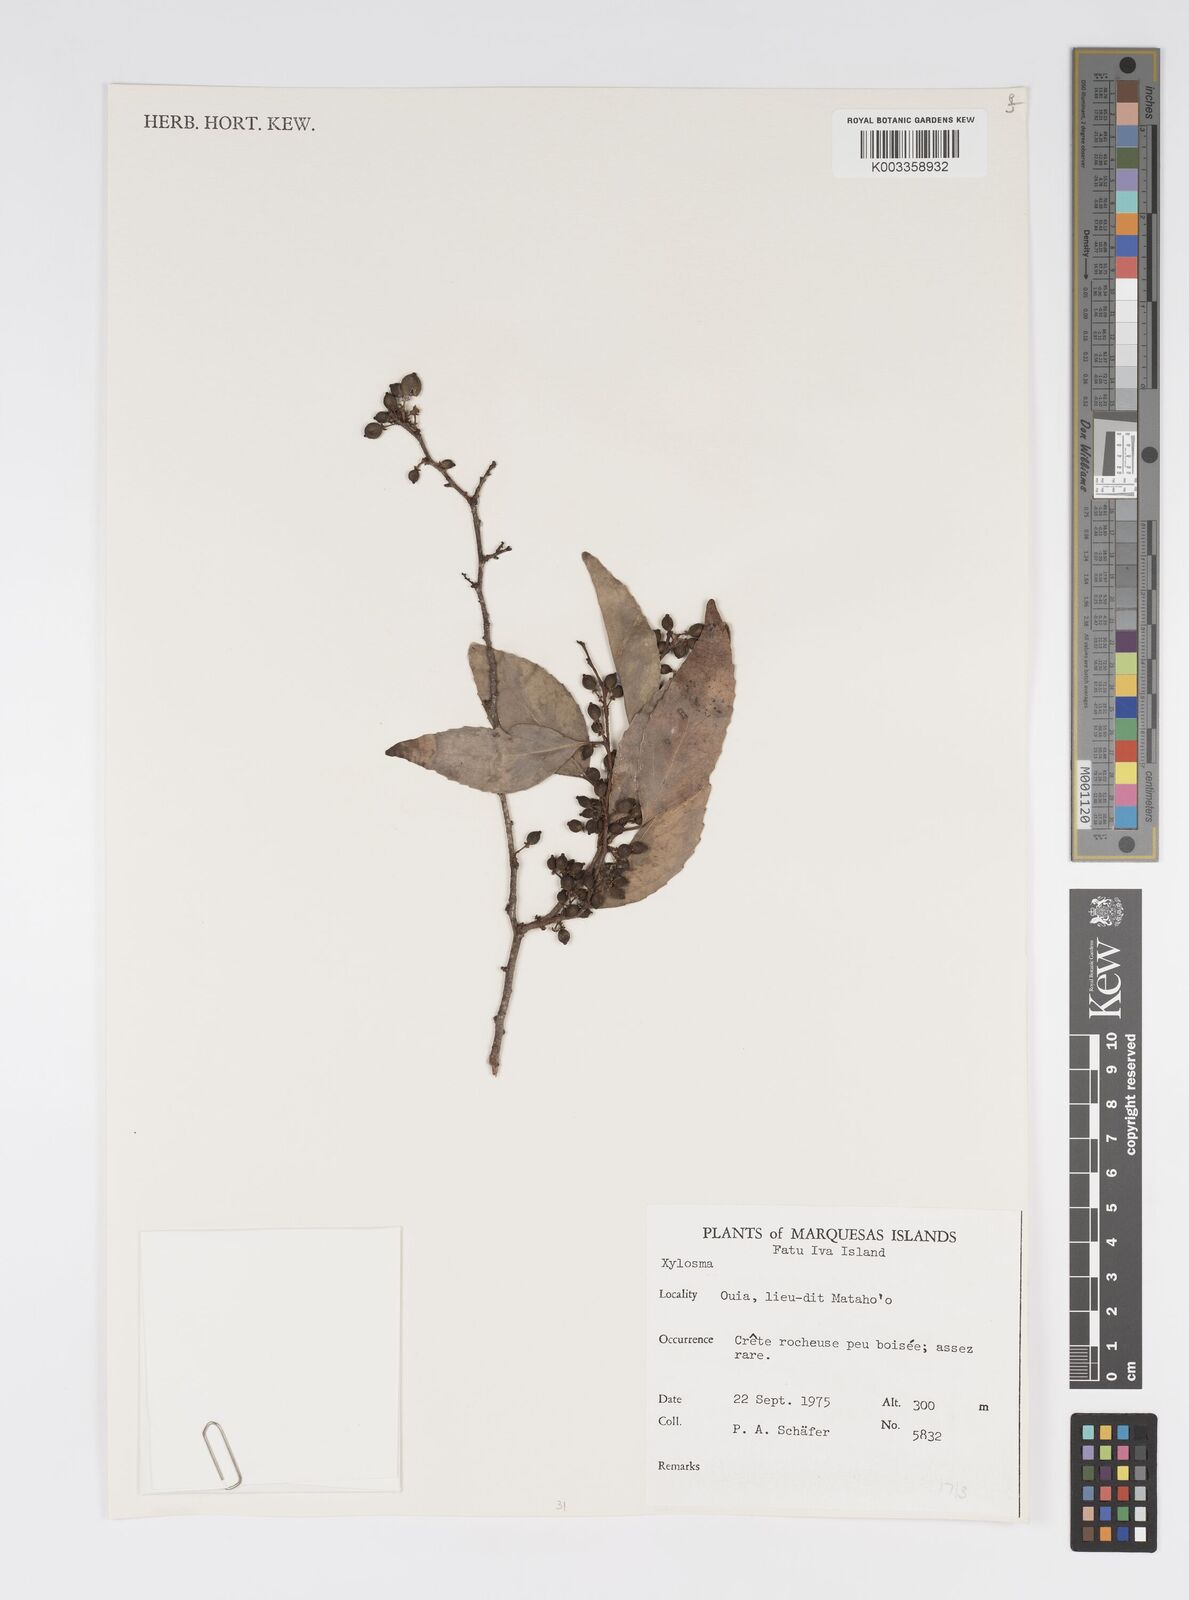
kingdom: Plantae
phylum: Tracheophyta
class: Magnoliopsida
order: Malpighiales
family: Salicaceae
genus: Xylosma
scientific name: Xylosma
